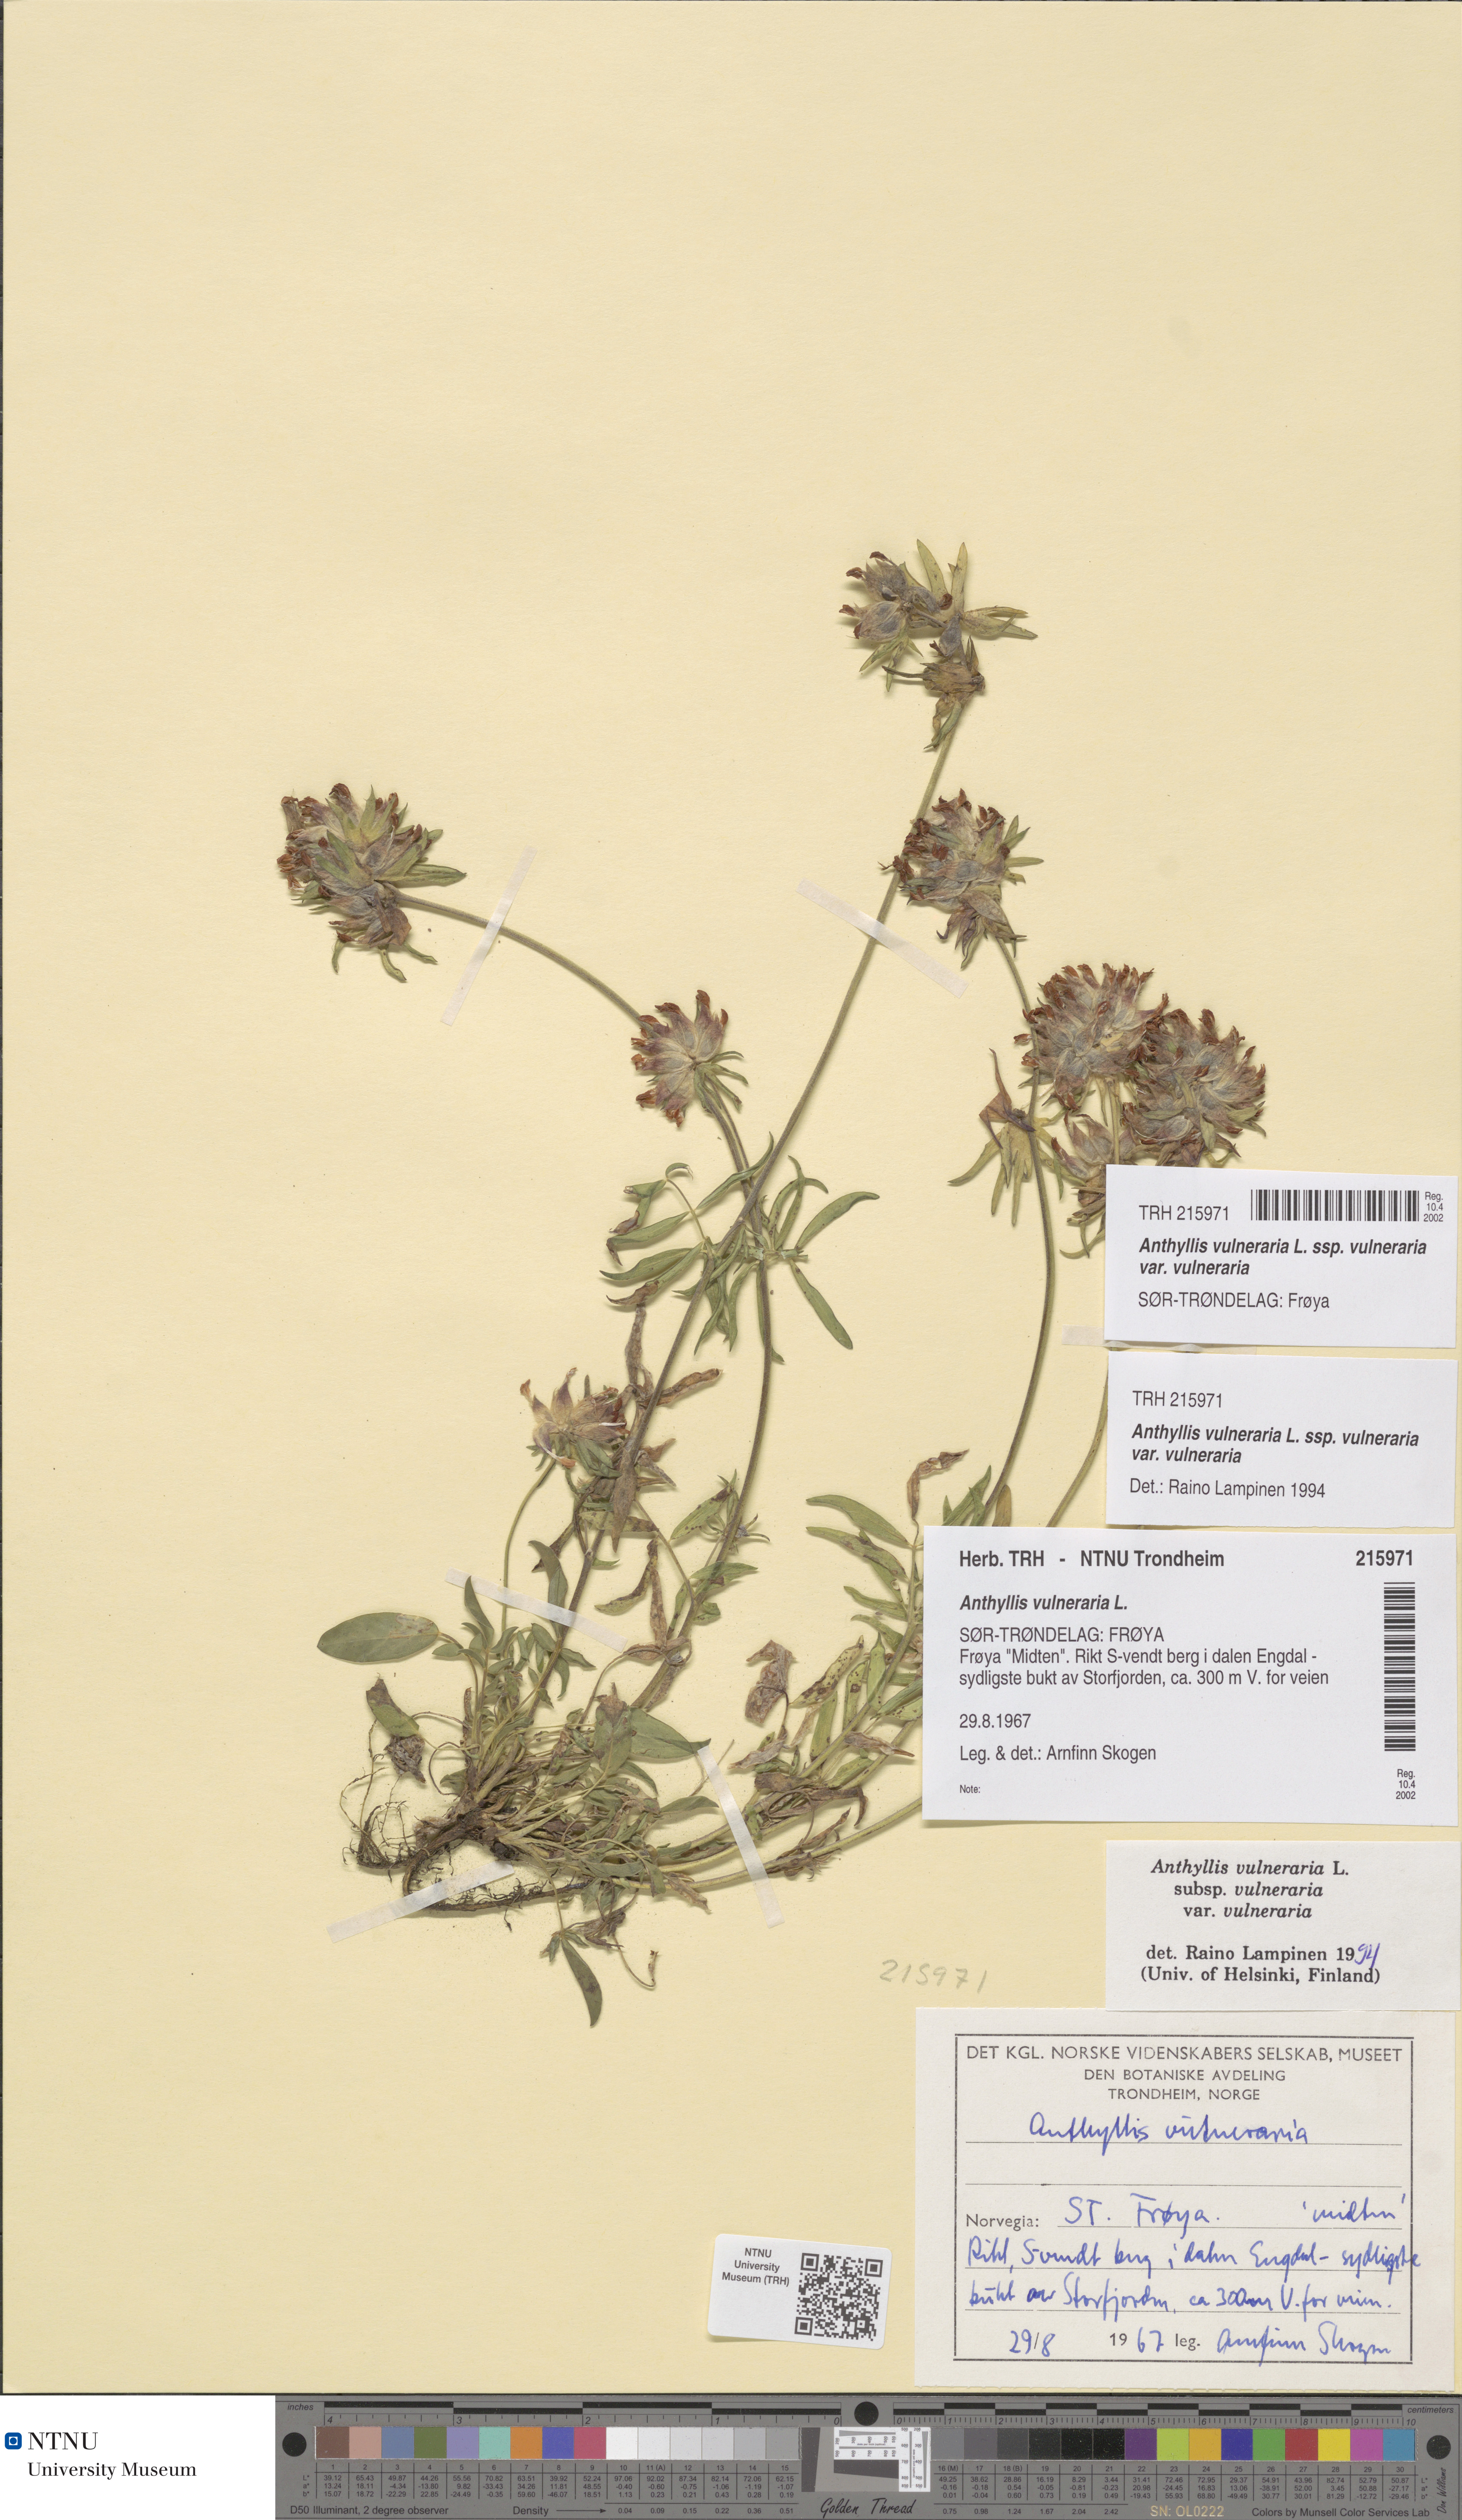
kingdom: Plantae
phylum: Tracheophyta
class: Magnoliopsida
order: Fabales
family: Fabaceae
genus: Anthyllis
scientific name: Anthyllis vulneraria
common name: Kidney vetch
